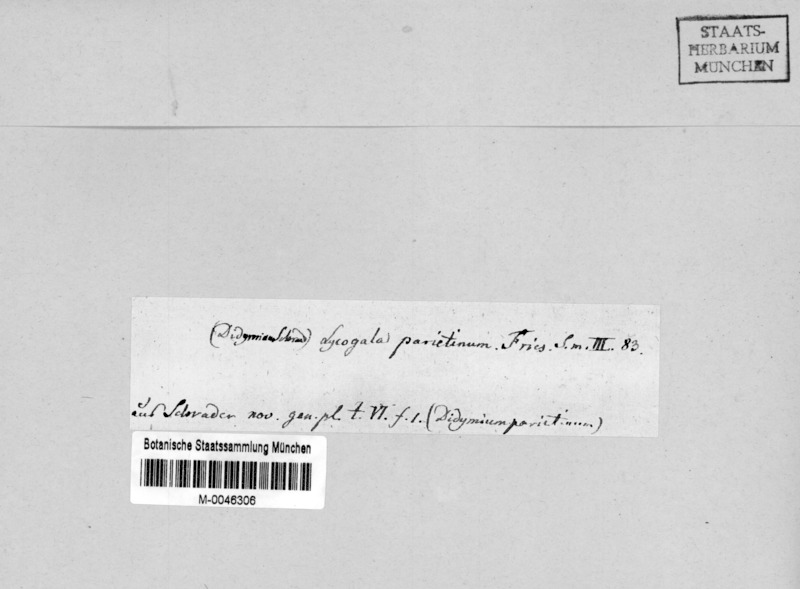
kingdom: Protozoa
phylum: Mycetozoa
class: Myxomycetes
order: Cribrariales
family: Tubiferaceae
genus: Lycogala
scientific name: Lycogala
